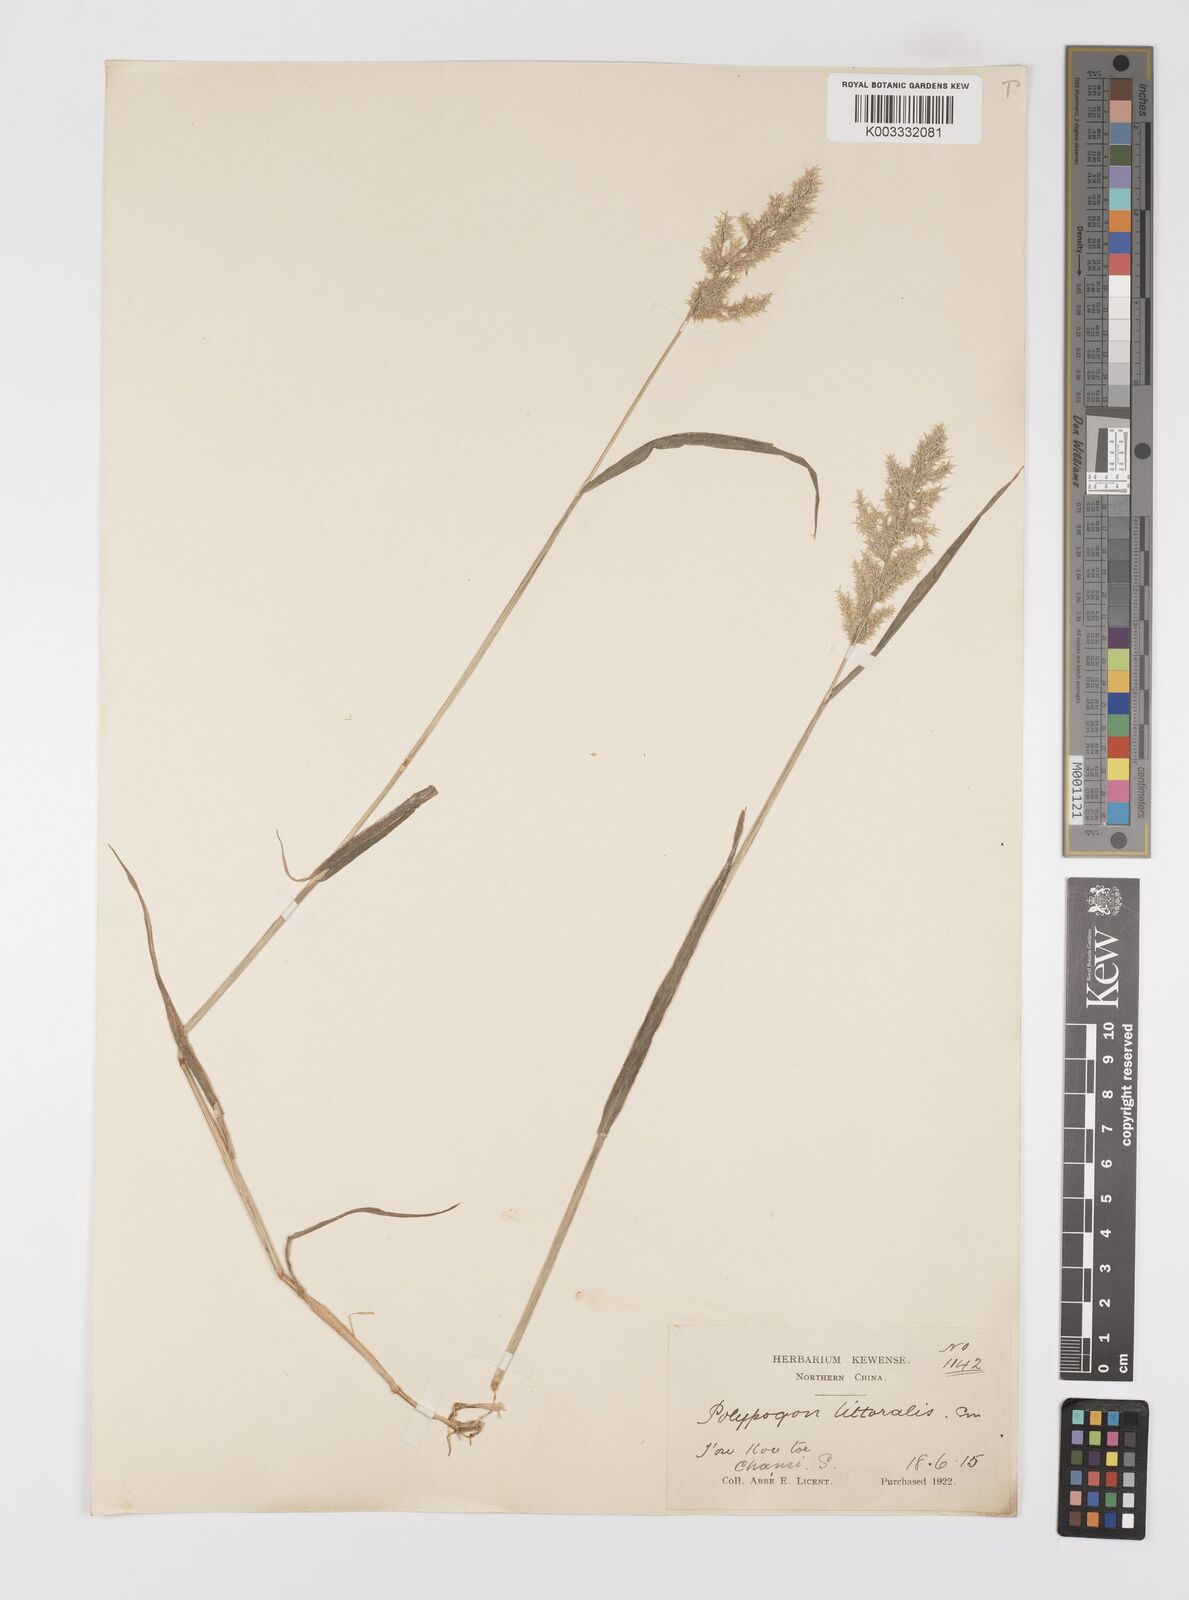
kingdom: Plantae
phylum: Tracheophyta
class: Liliopsida
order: Poales
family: Poaceae
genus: Polypogon
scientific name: Polypogon fugax
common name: Asia minor bluegrass
